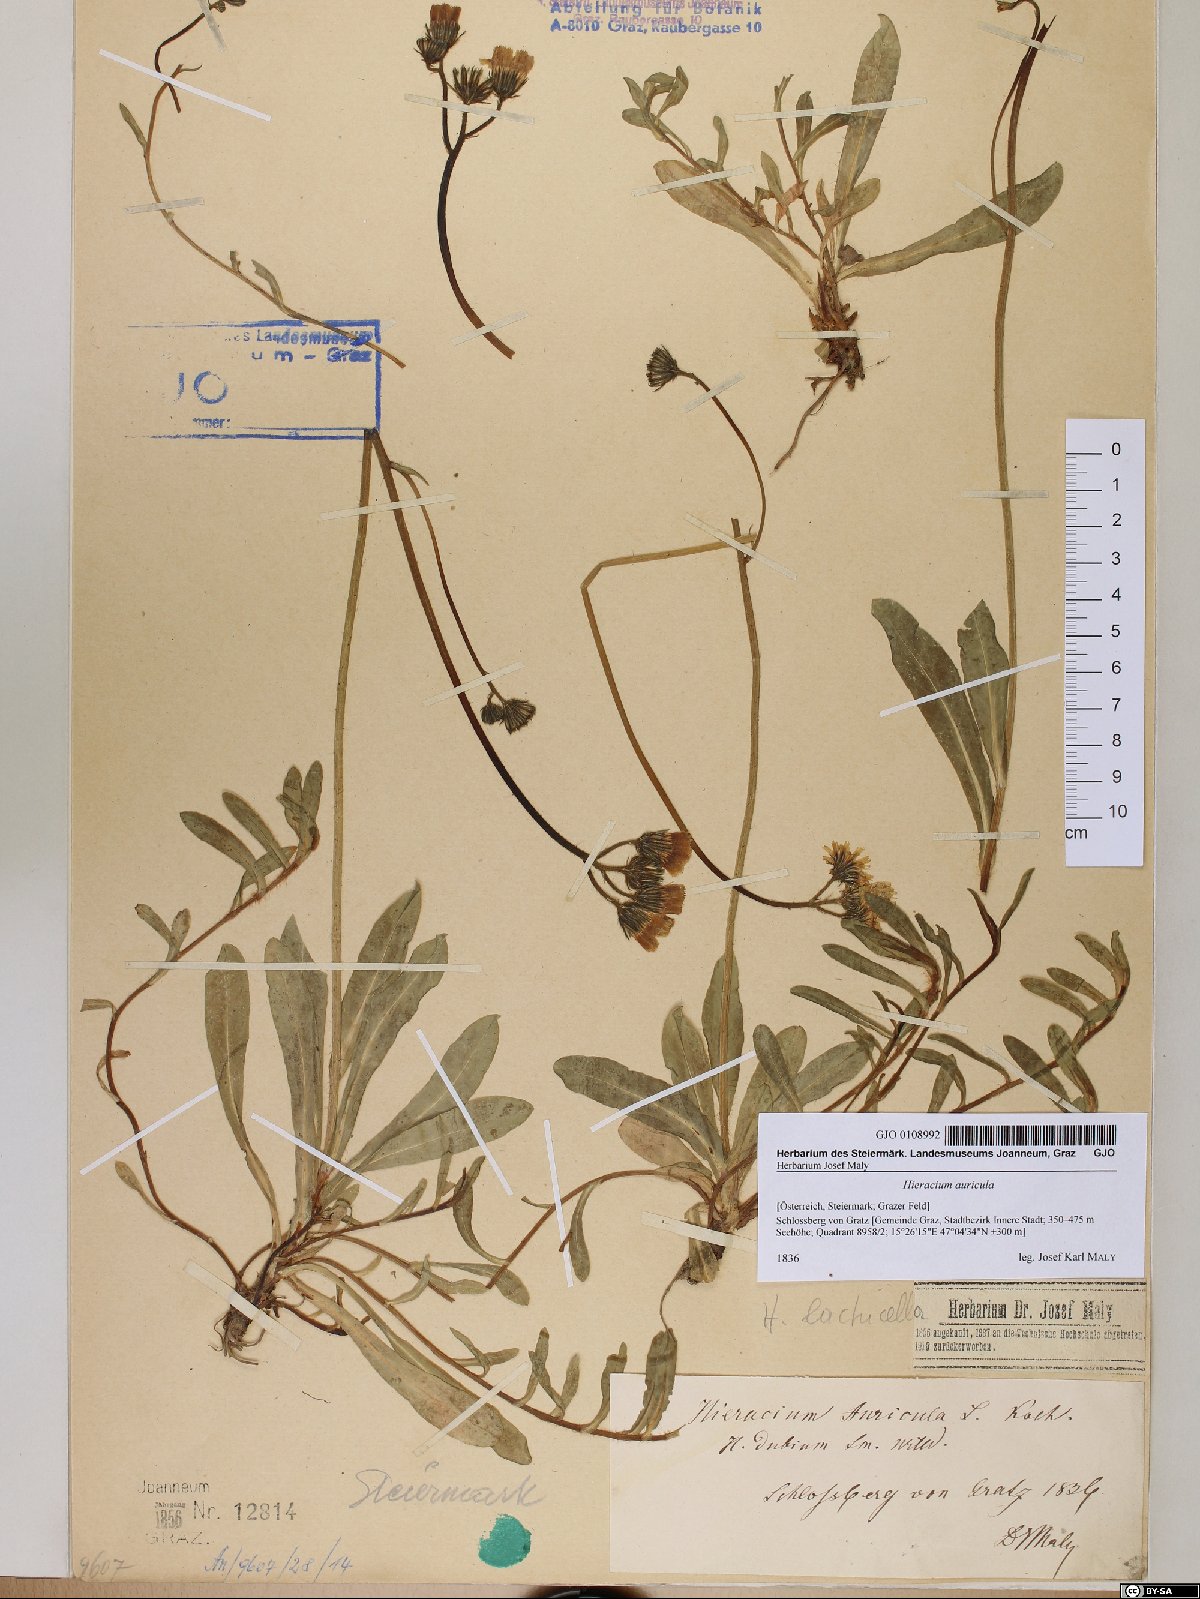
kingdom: Plantae
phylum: Tracheophyta
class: Magnoliopsida
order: Asterales
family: Asteraceae
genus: Hieracium
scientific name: Hieracium auricula
